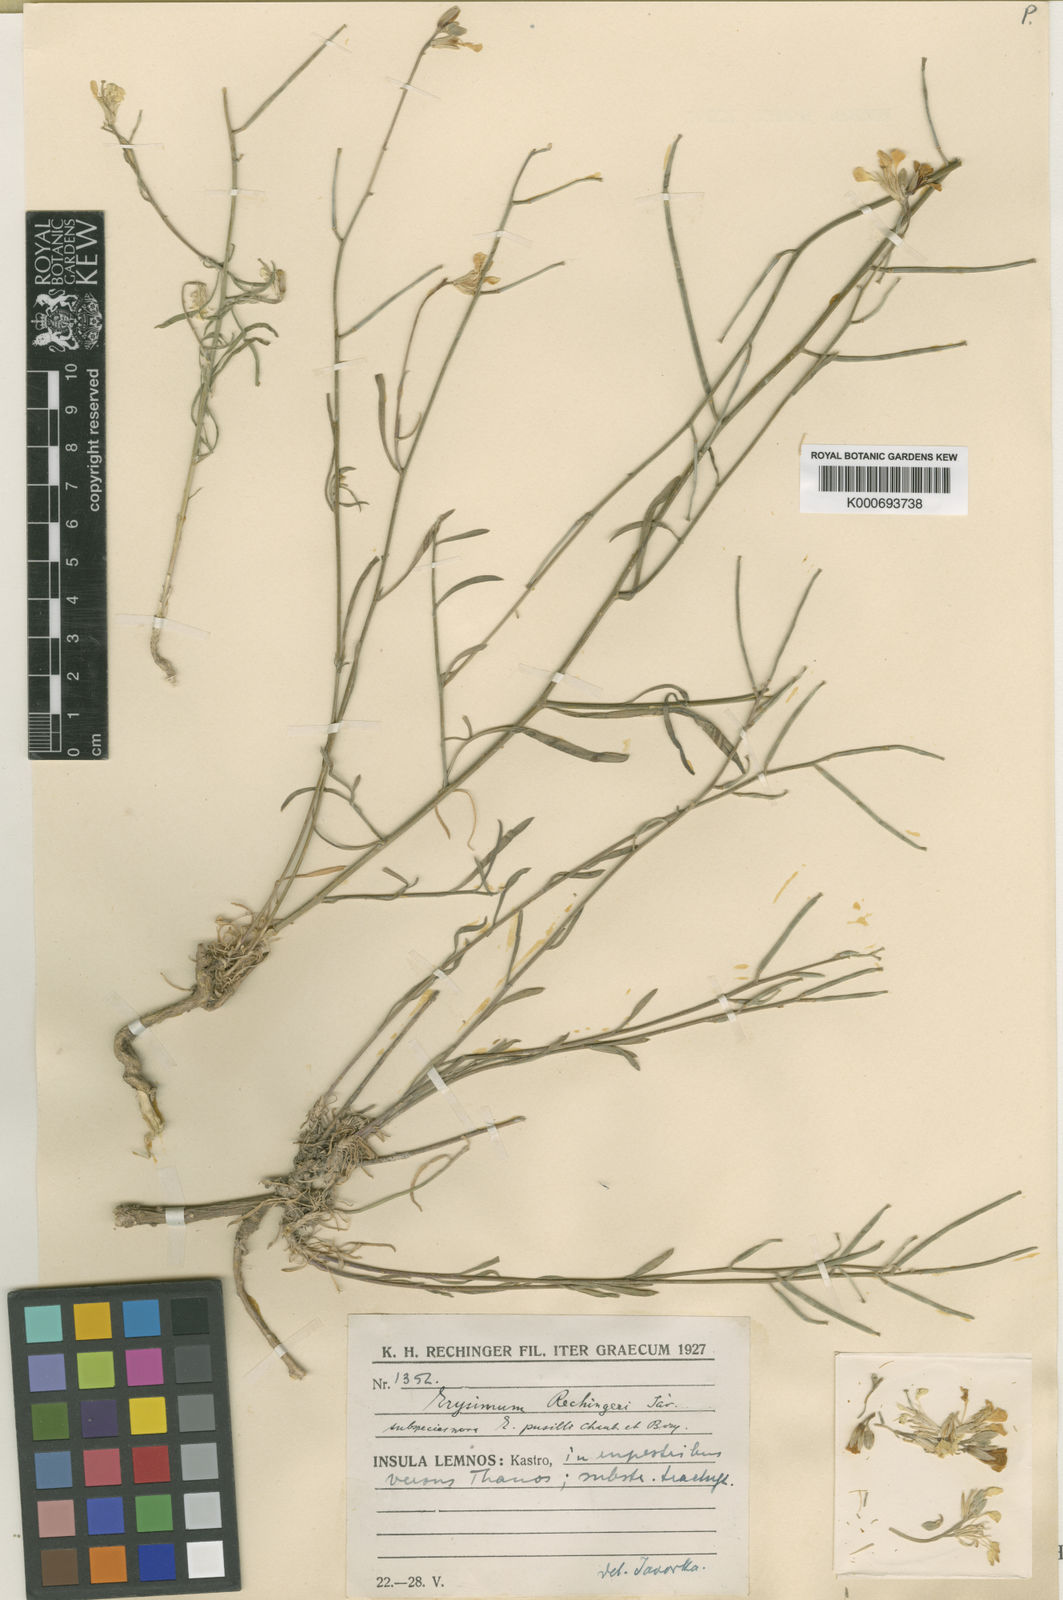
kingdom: Plantae
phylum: Tracheophyta
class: Magnoliopsida
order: Brassicales
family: Brassicaceae
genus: Erysimum
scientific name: Erysimum
